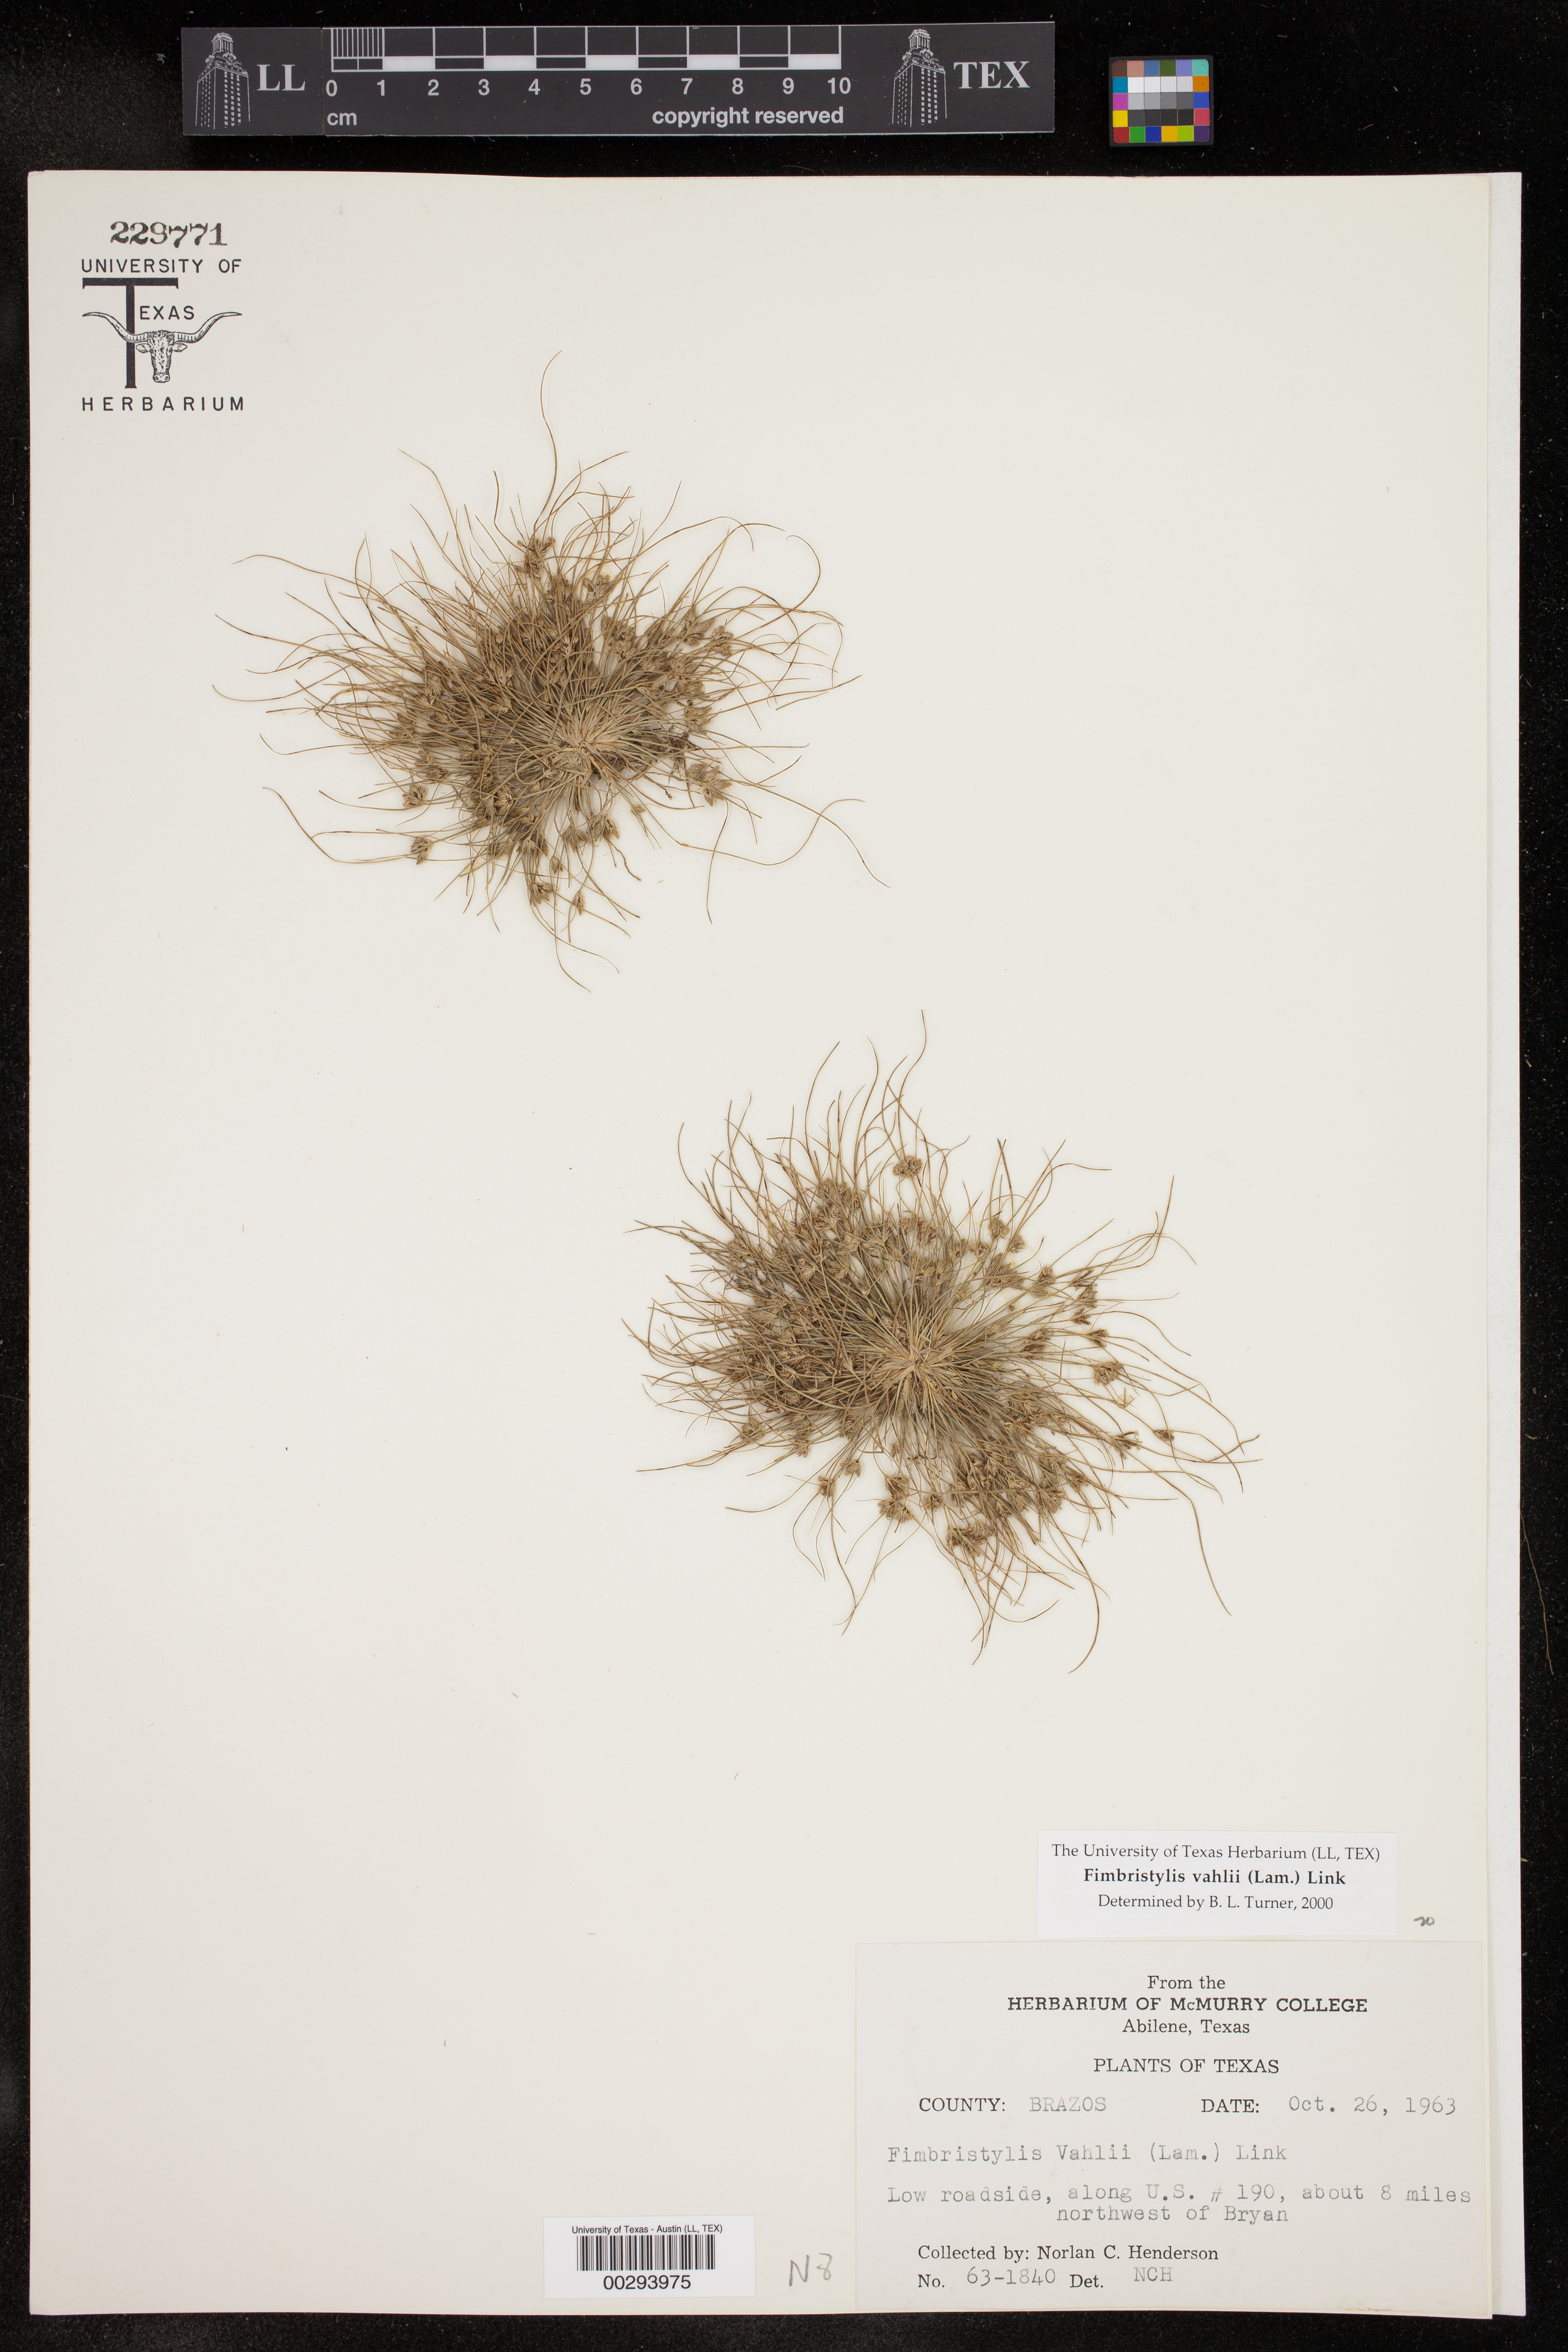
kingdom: Plantae
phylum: Tracheophyta
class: Liliopsida
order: Poales
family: Cyperaceae
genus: Fimbristylis
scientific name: Fimbristylis vahlii
